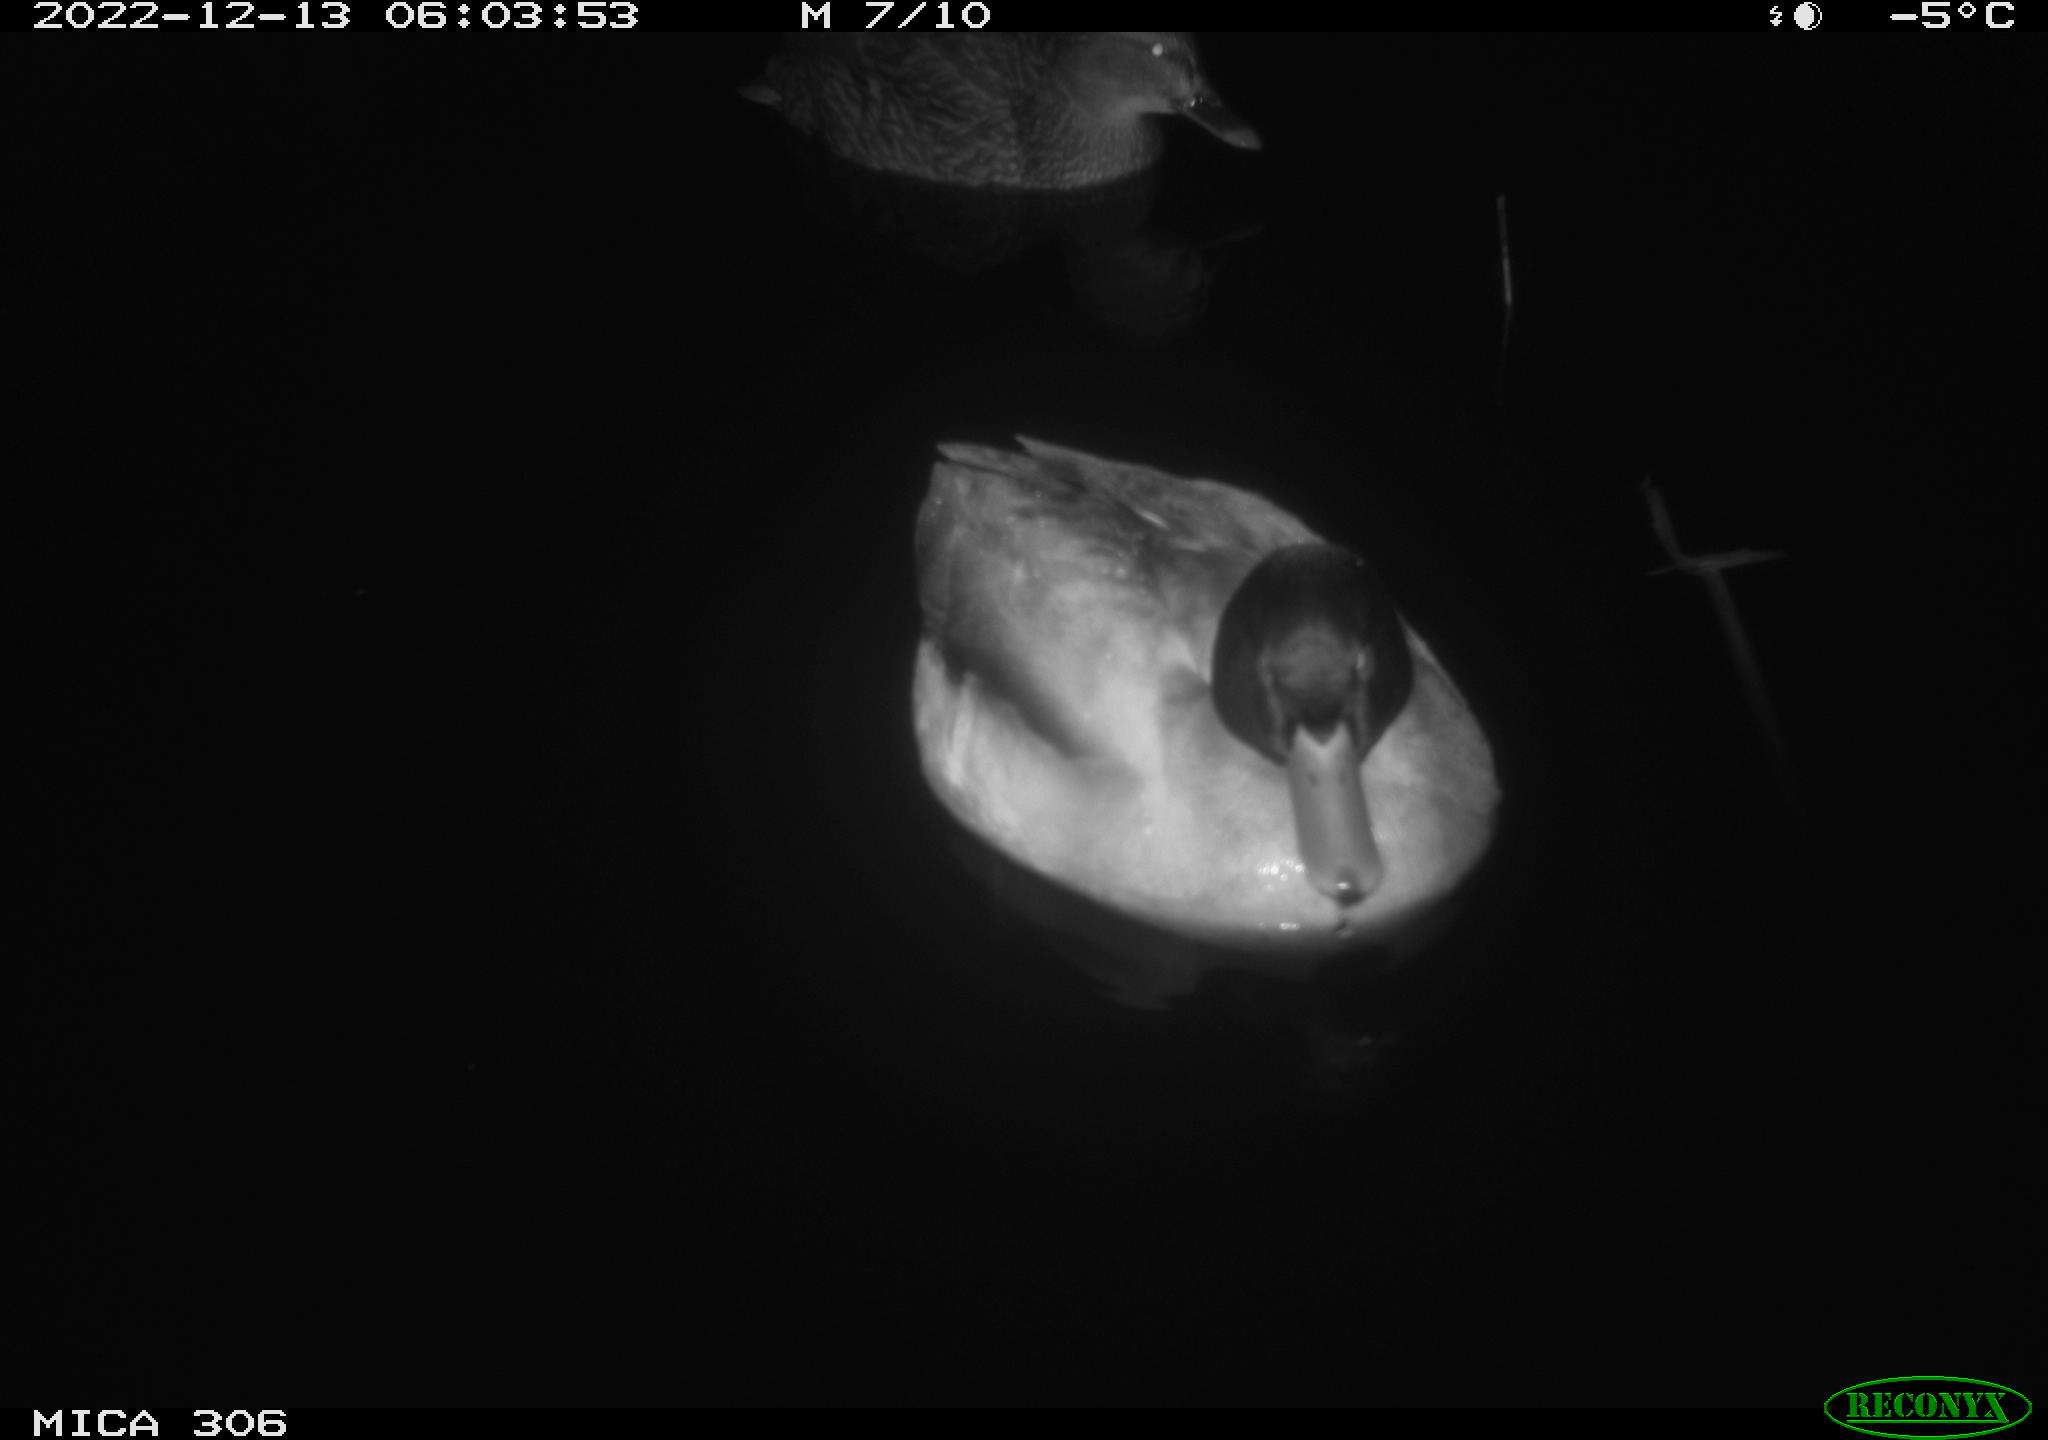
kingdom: Animalia
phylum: Chordata
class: Aves
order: Anseriformes
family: Anatidae
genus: Anas
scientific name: Anas
